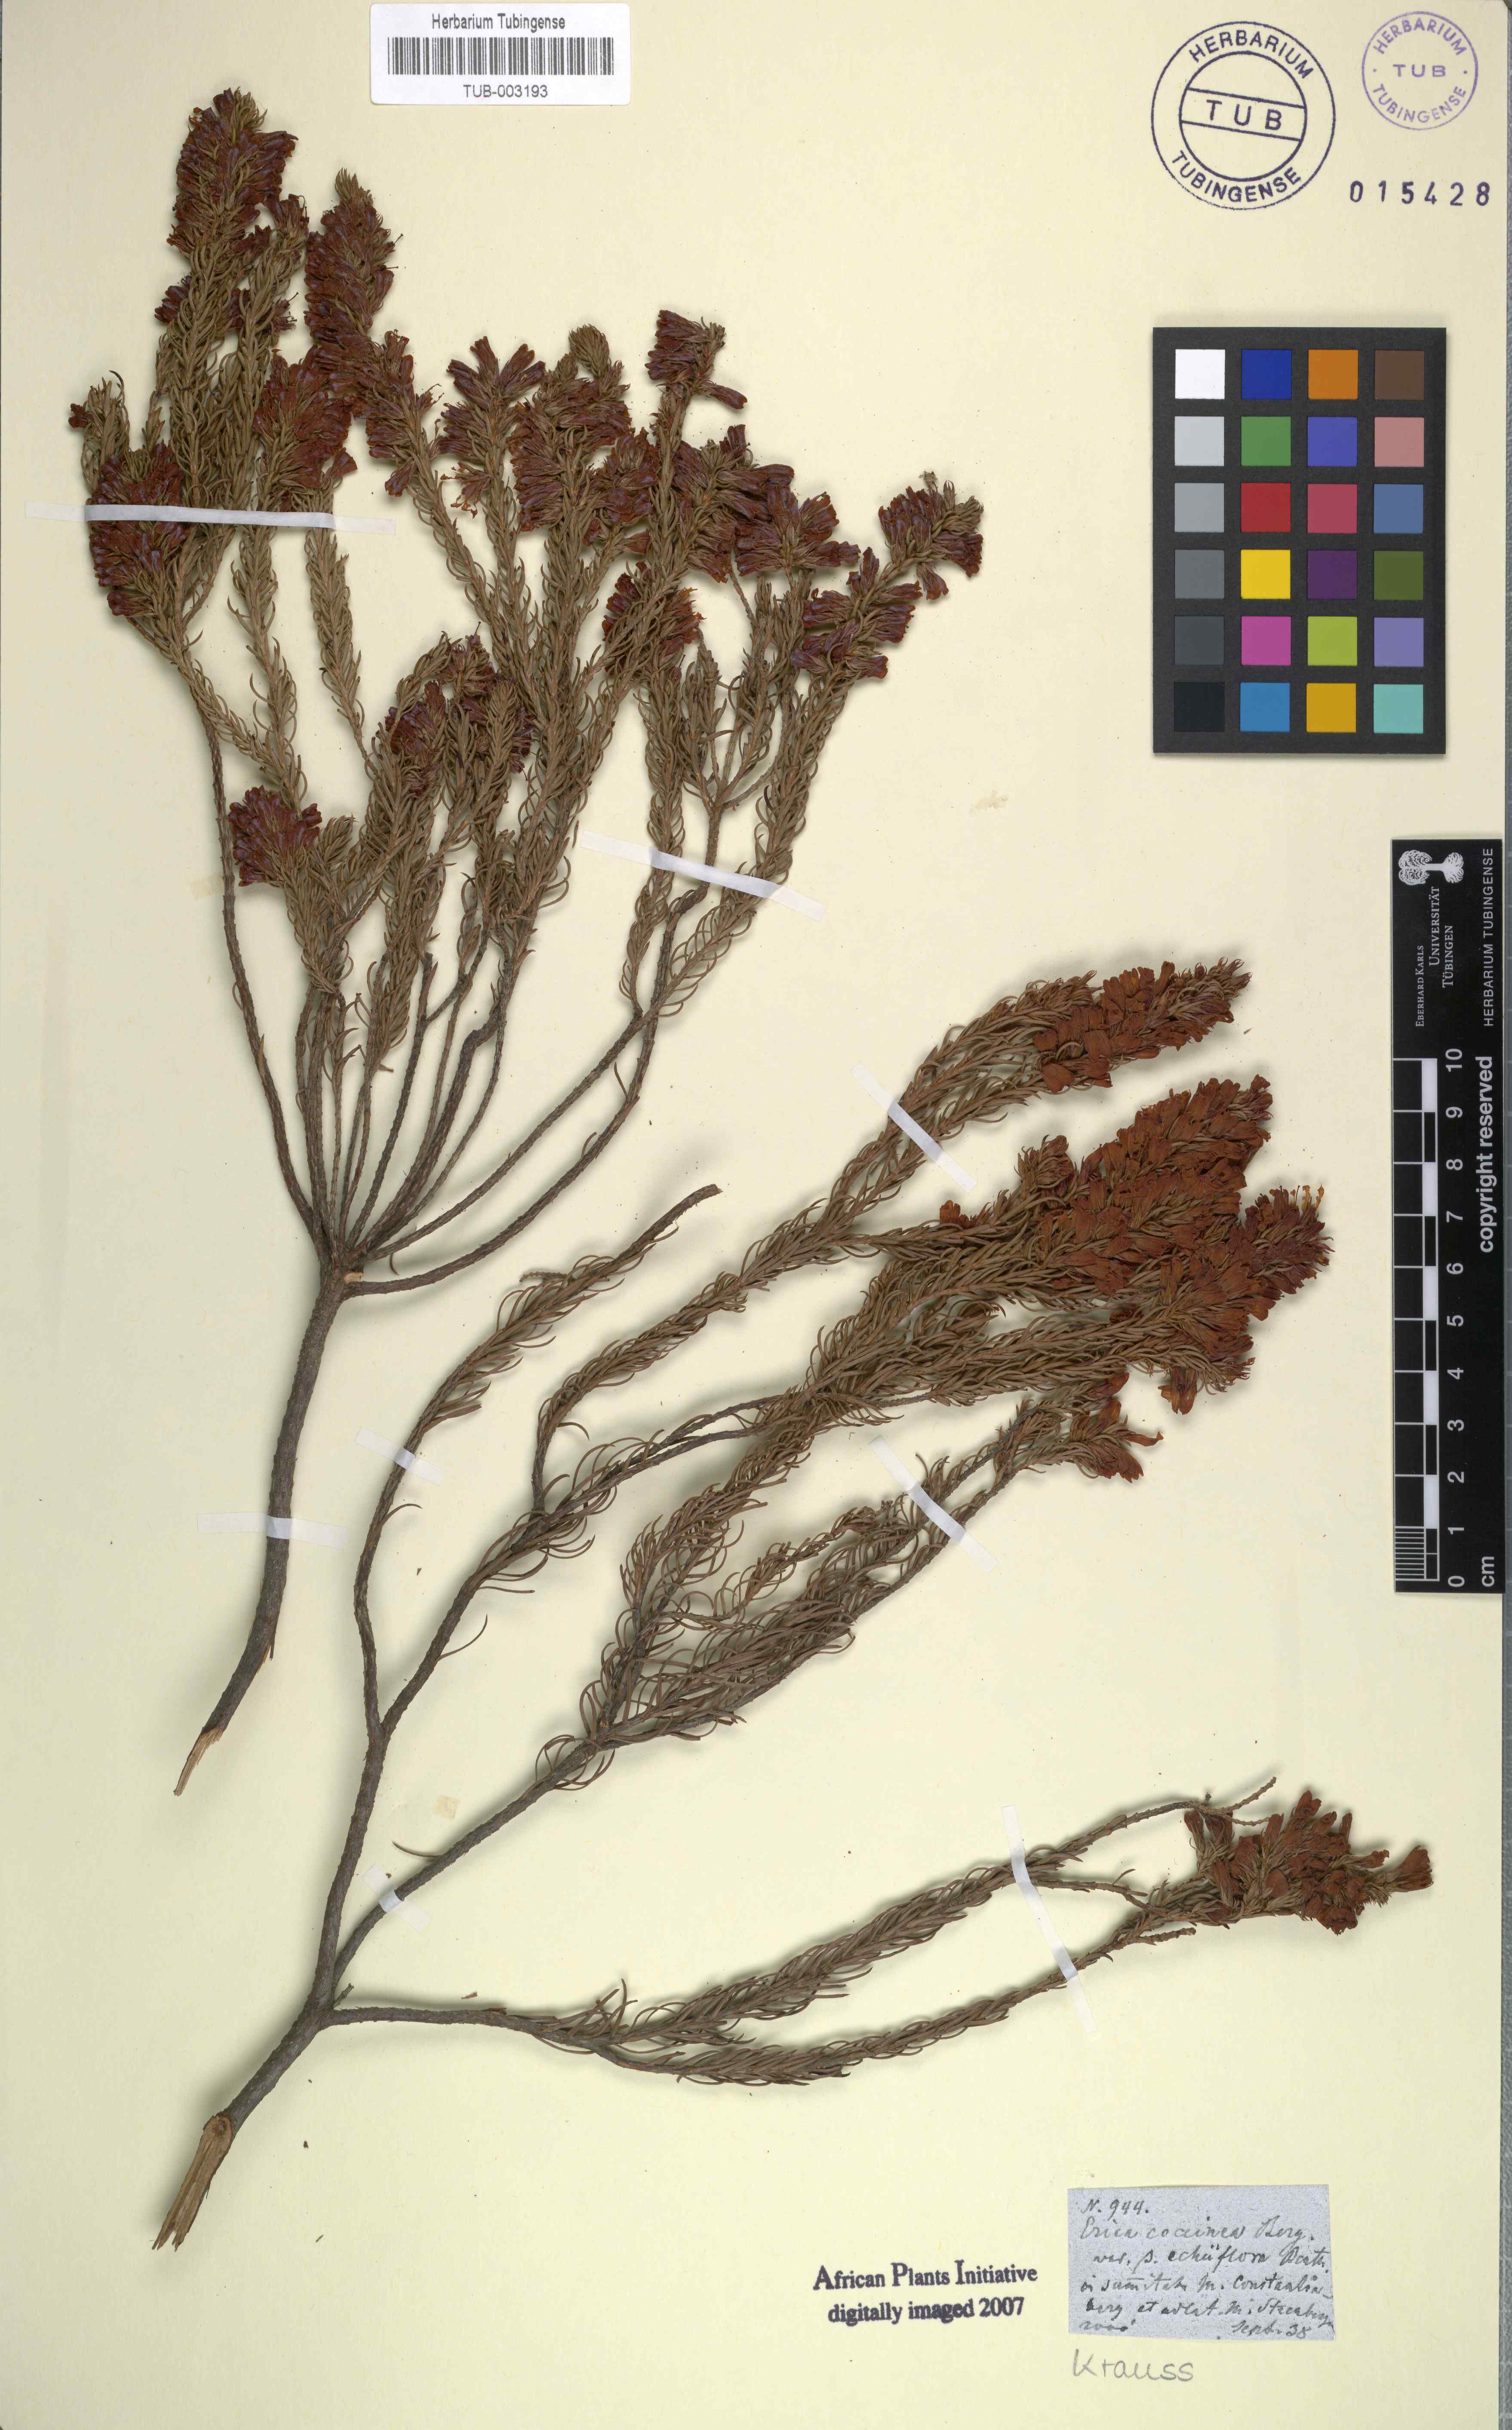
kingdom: Plantae
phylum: Tracheophyta
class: Magnoliopsida
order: Ericales
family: Ericaceae
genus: Erica
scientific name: Erica abietina
